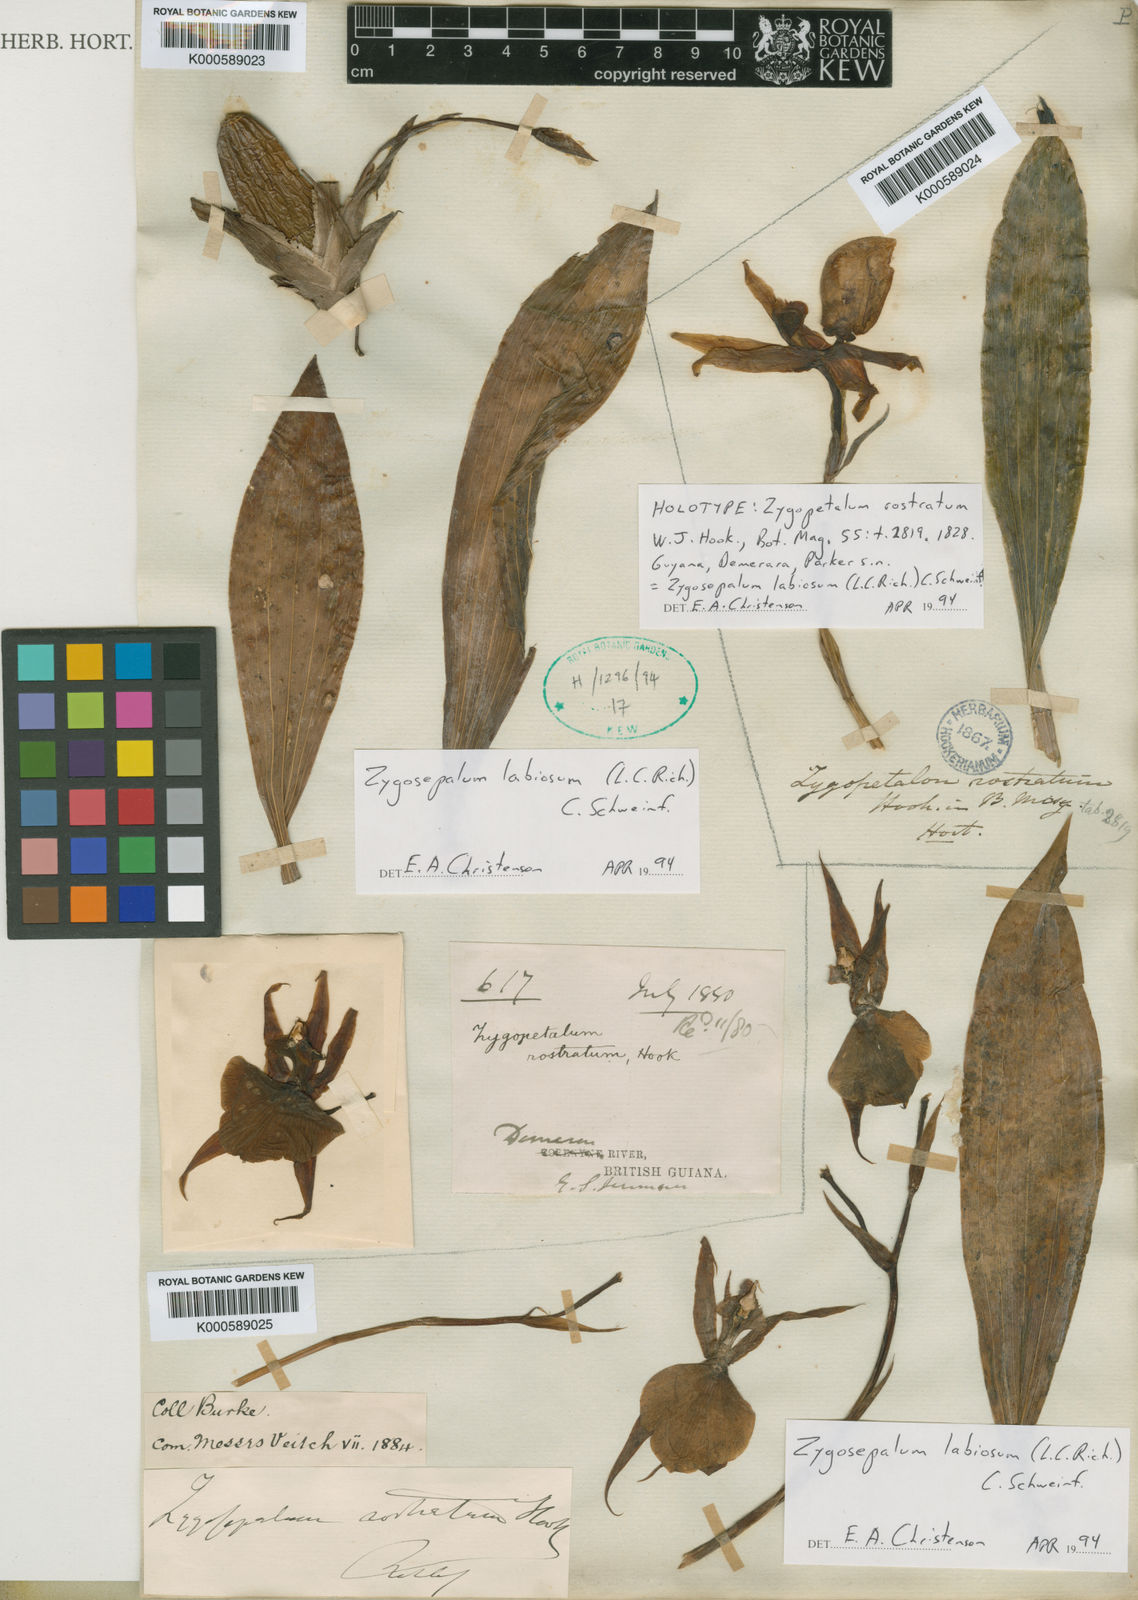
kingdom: Plantae
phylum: Tracheophyta
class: Liliopsida
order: Asparagales
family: Orchidaceae
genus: Zygosepalum
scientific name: Zygosepalum labiosum
